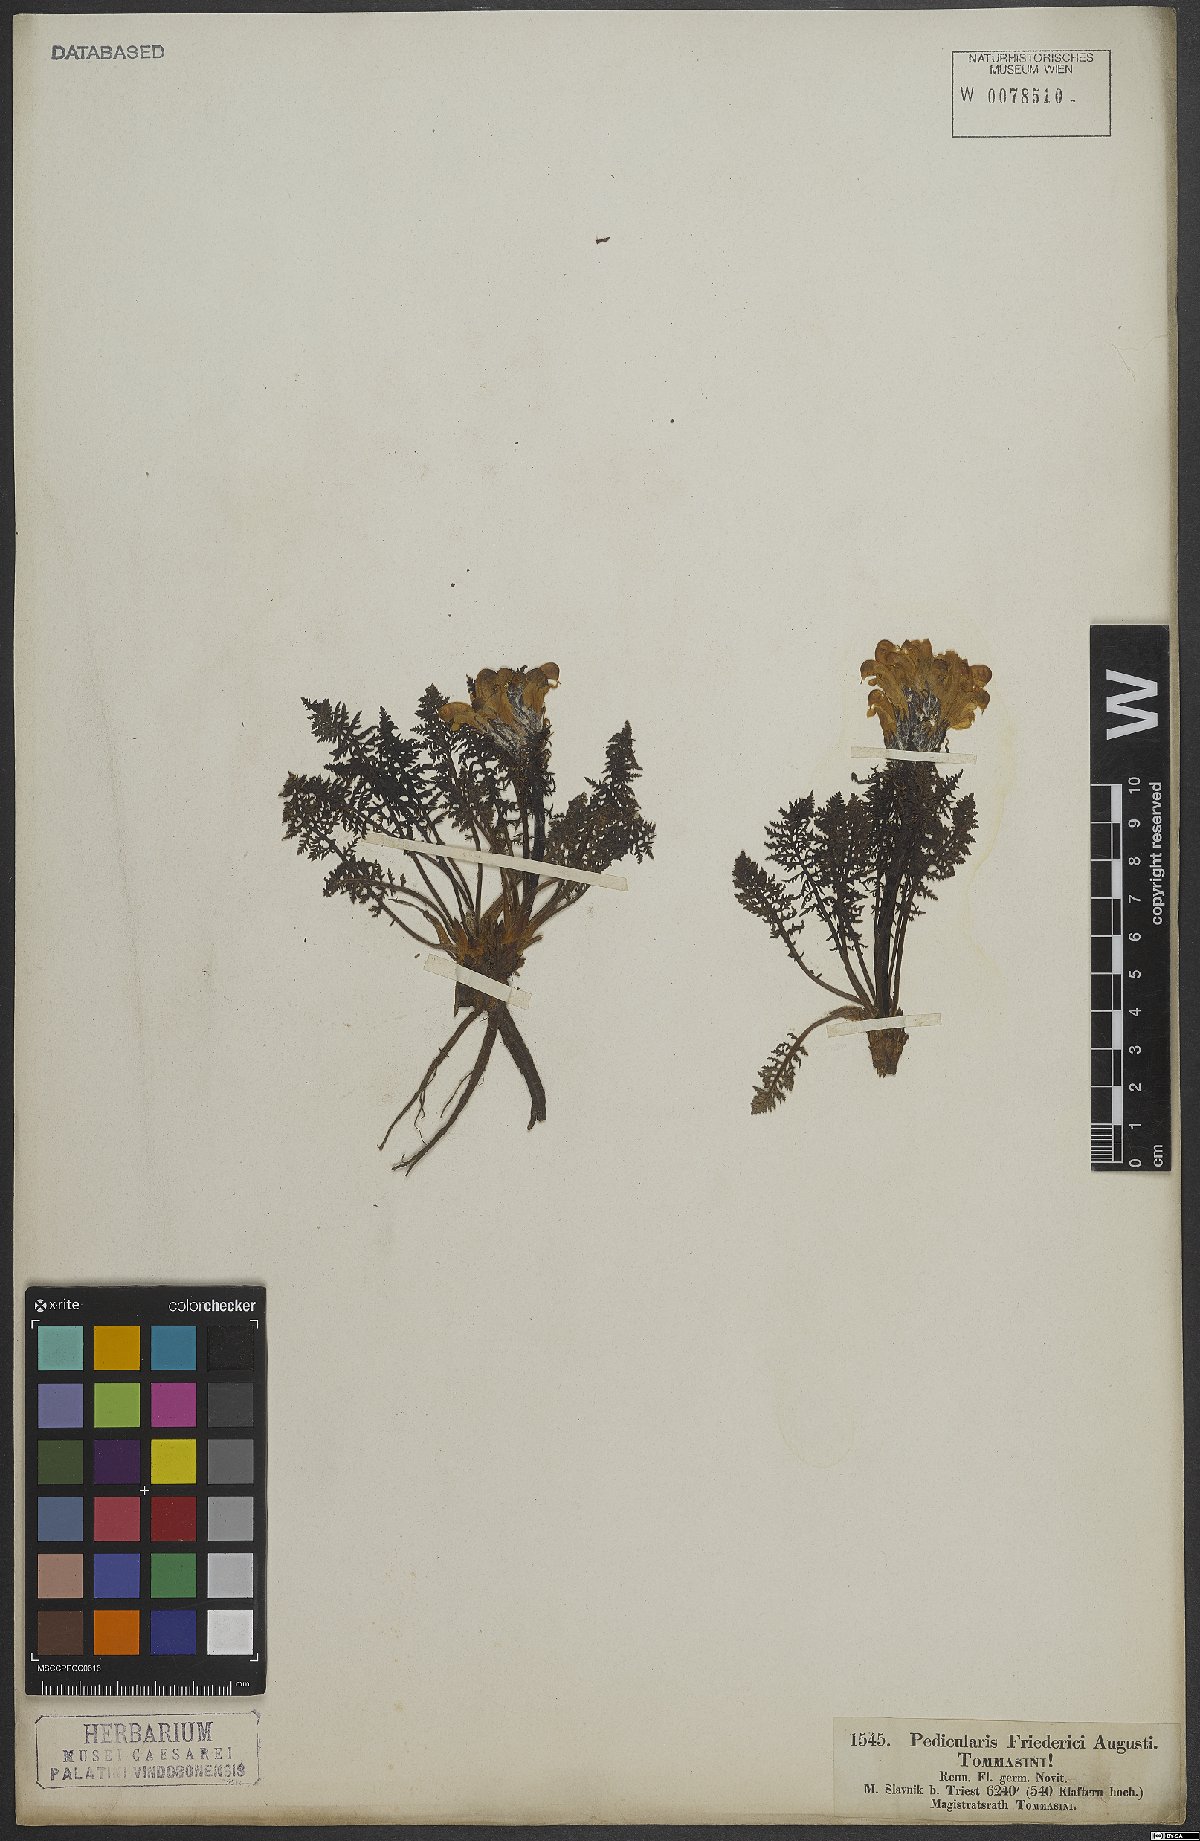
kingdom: Plantae
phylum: Tracheophyta
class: Magnoliopsida
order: Lamiales
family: Orobanchaceae
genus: Pedicularis
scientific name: Pedicularis friderici-augusti
